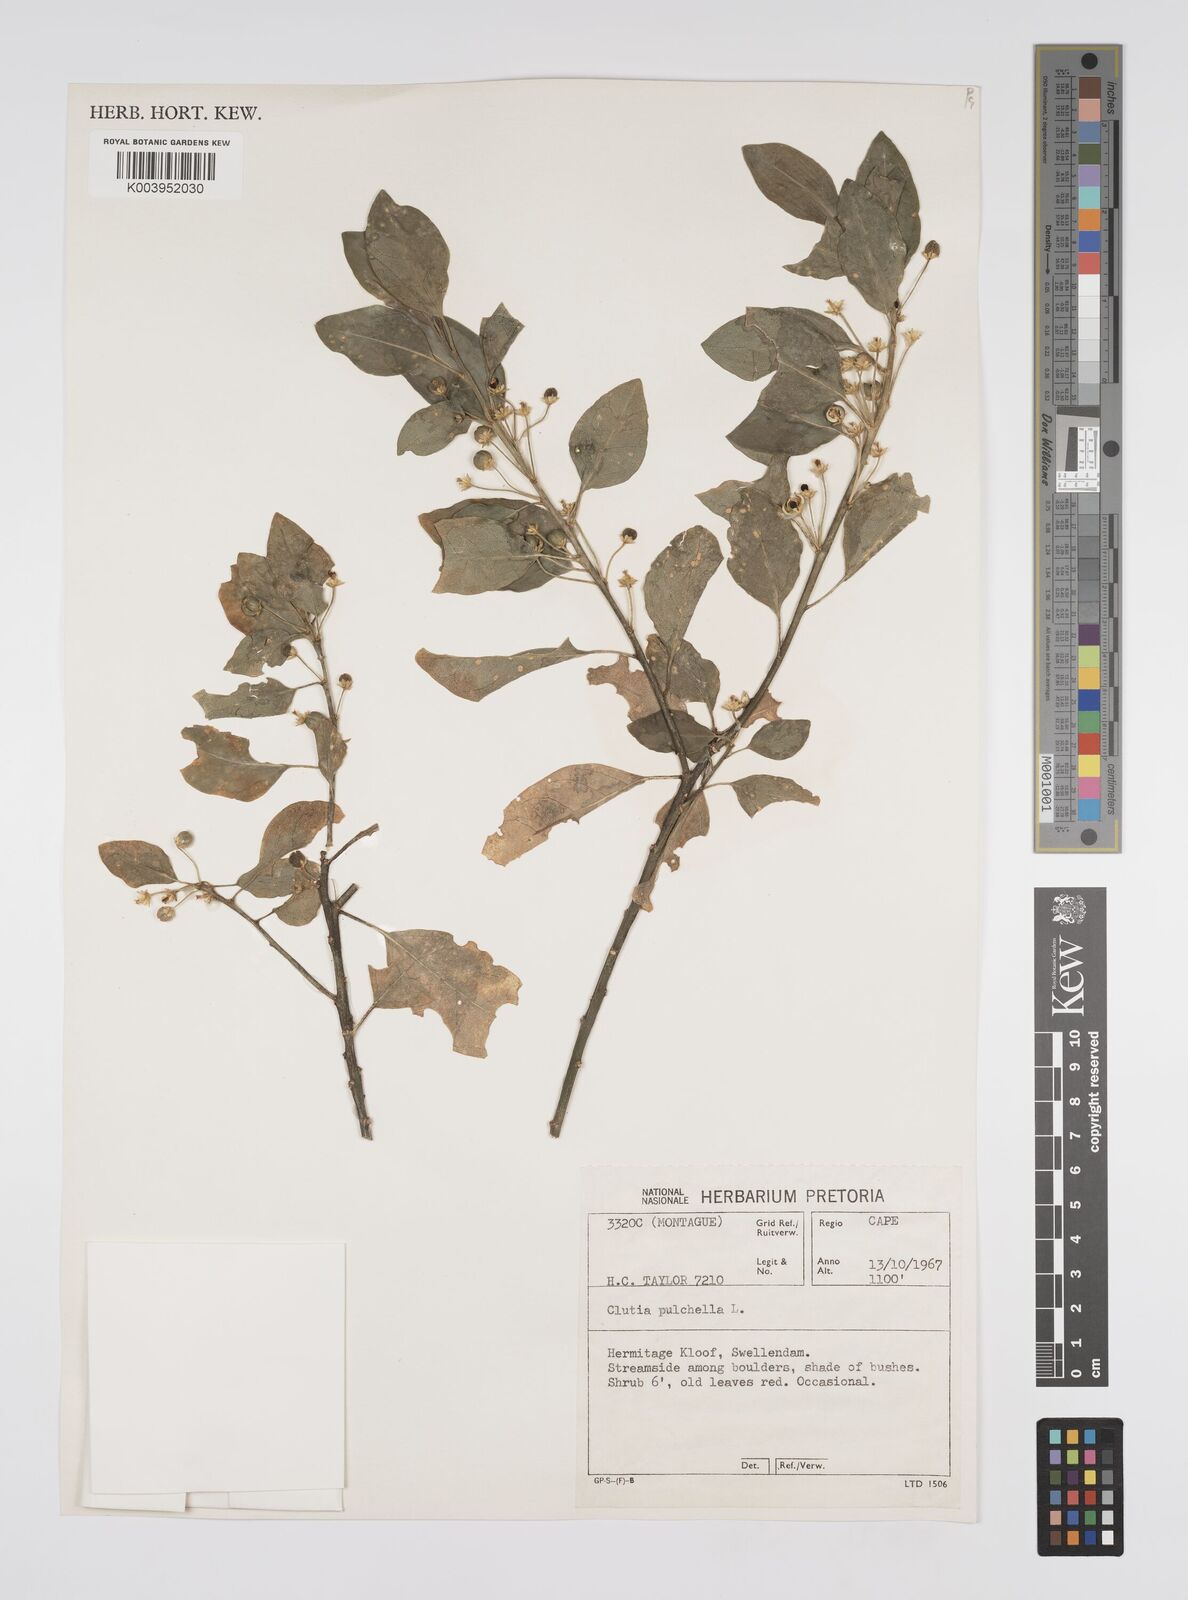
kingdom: Plantae
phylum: Tracheophyta
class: Magnoliopsida
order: Malpighiales
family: Peraceae
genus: Clutia
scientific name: Clutia pulchella
